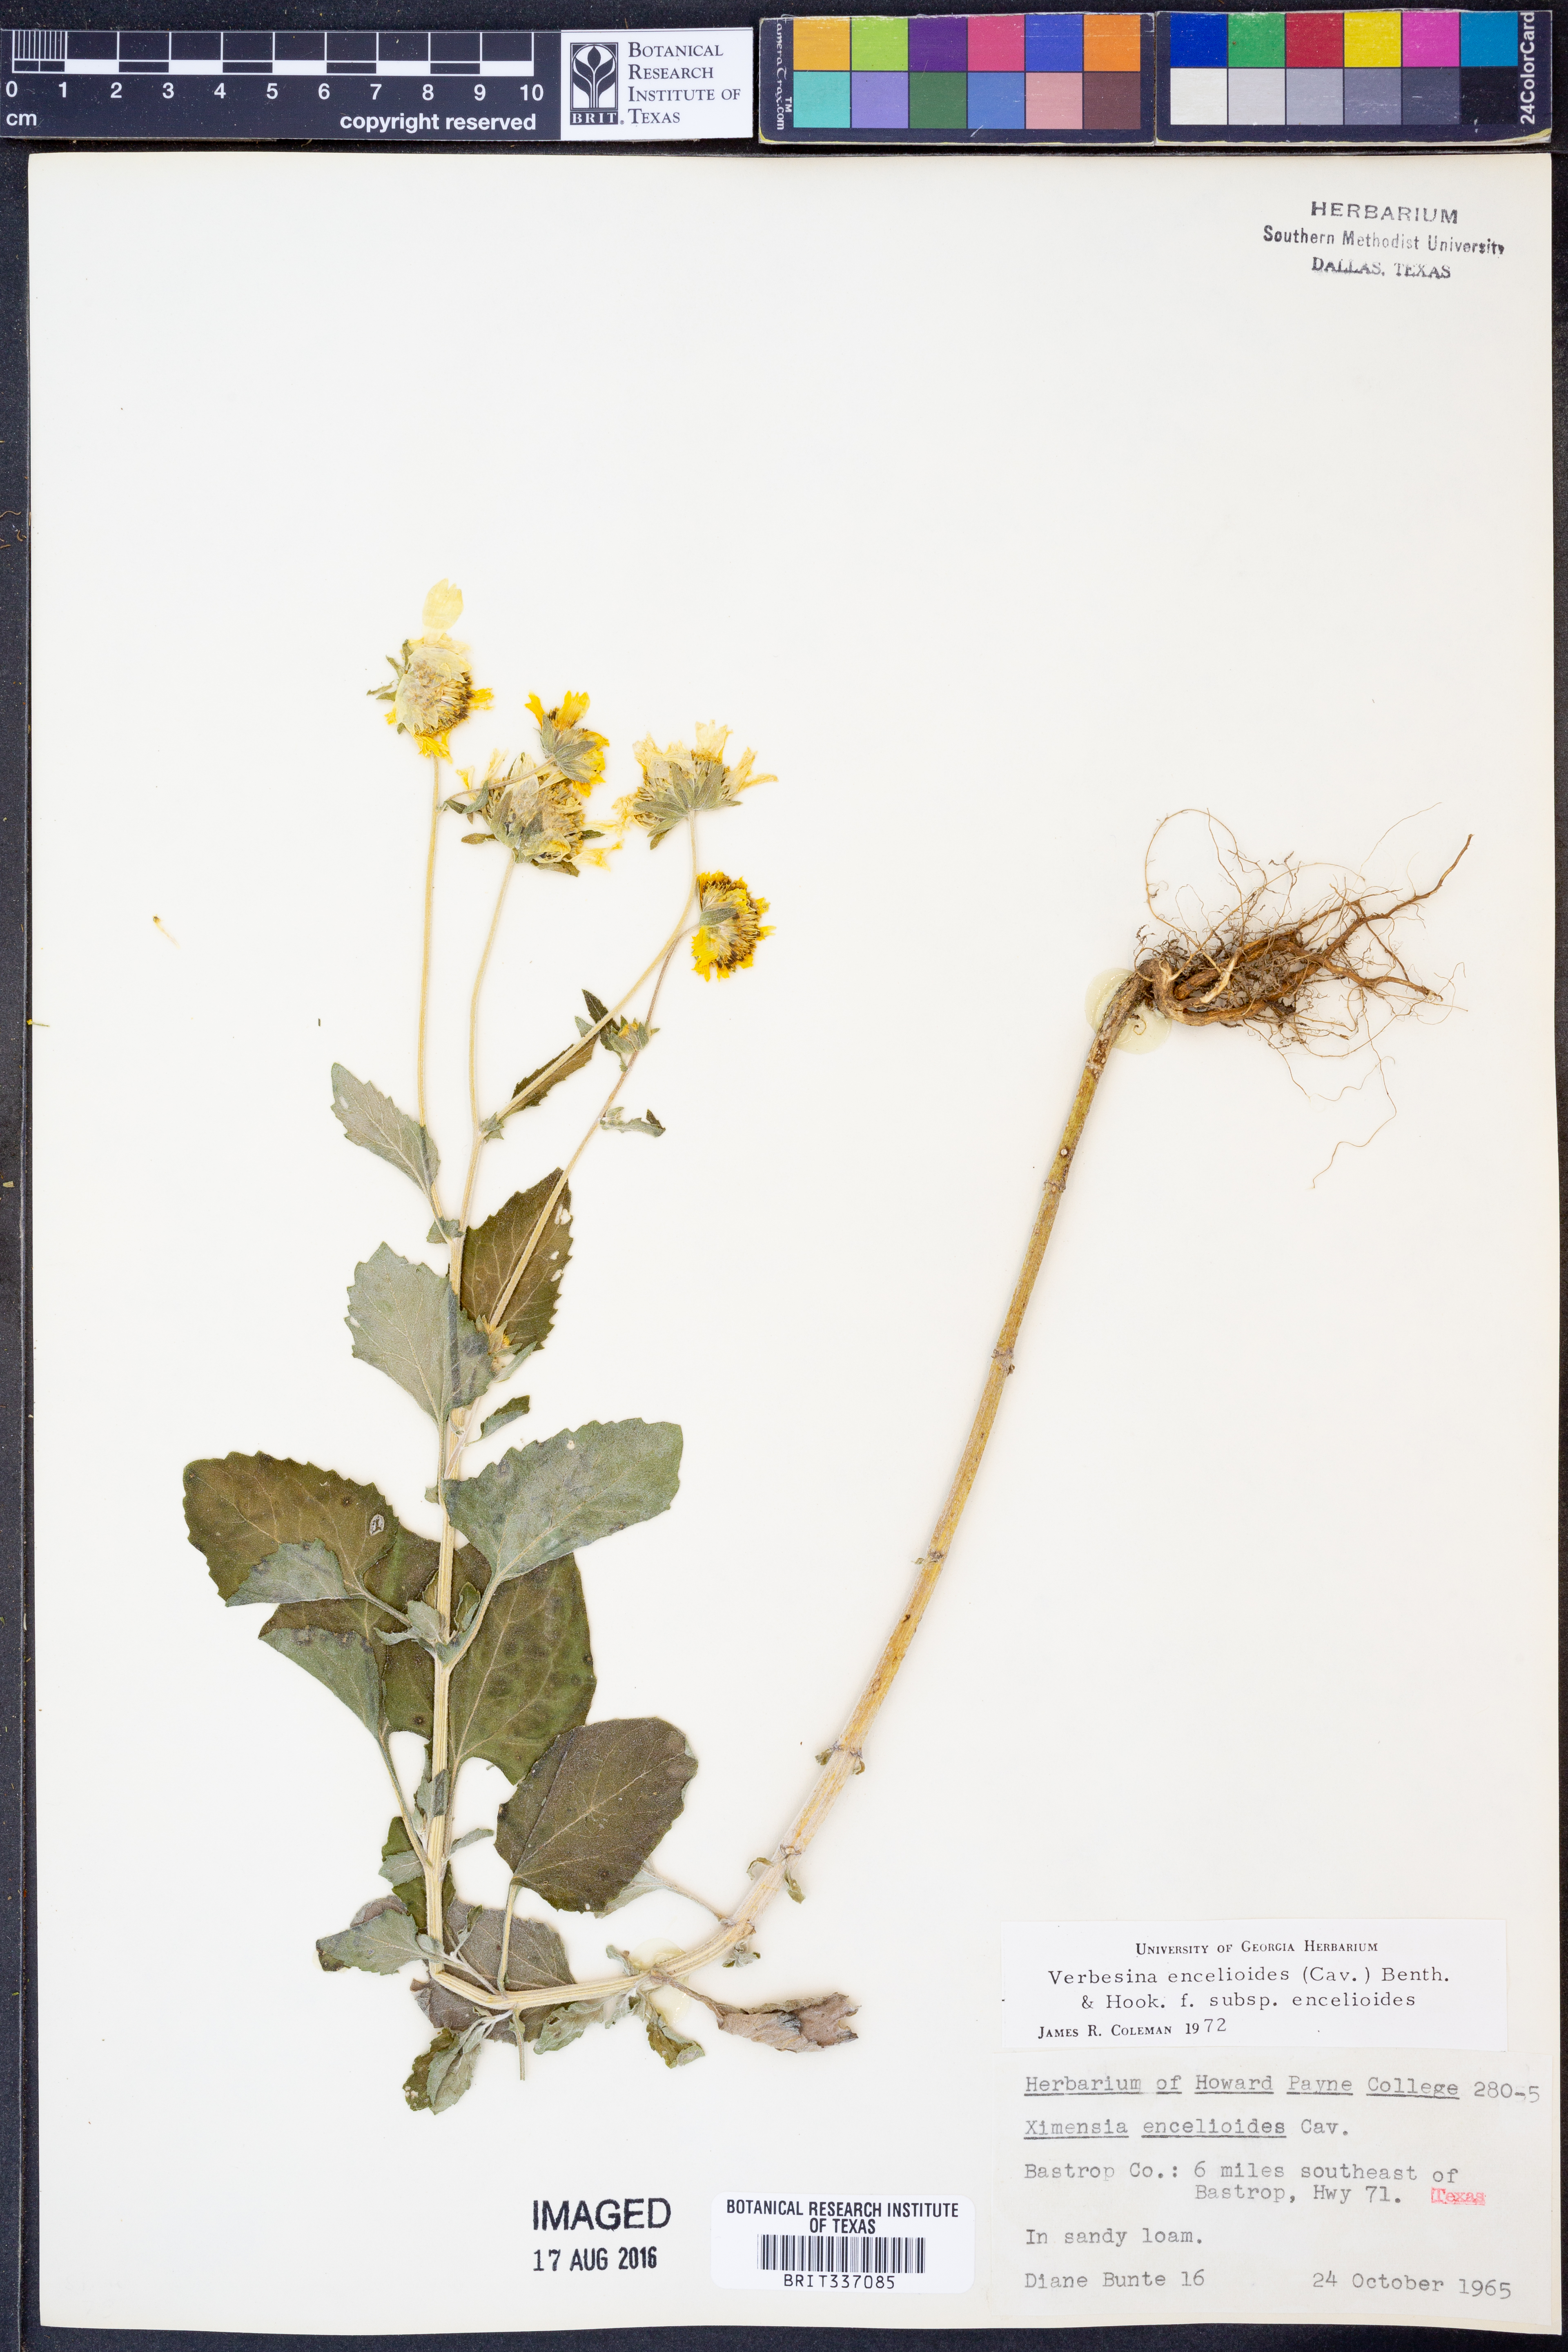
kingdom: Plantae
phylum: Tracheophyta
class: Magnoliopsida
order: Asterales
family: Asteraceae
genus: Verbesina
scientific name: Verbesina encelioides
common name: Golden crownbeard
